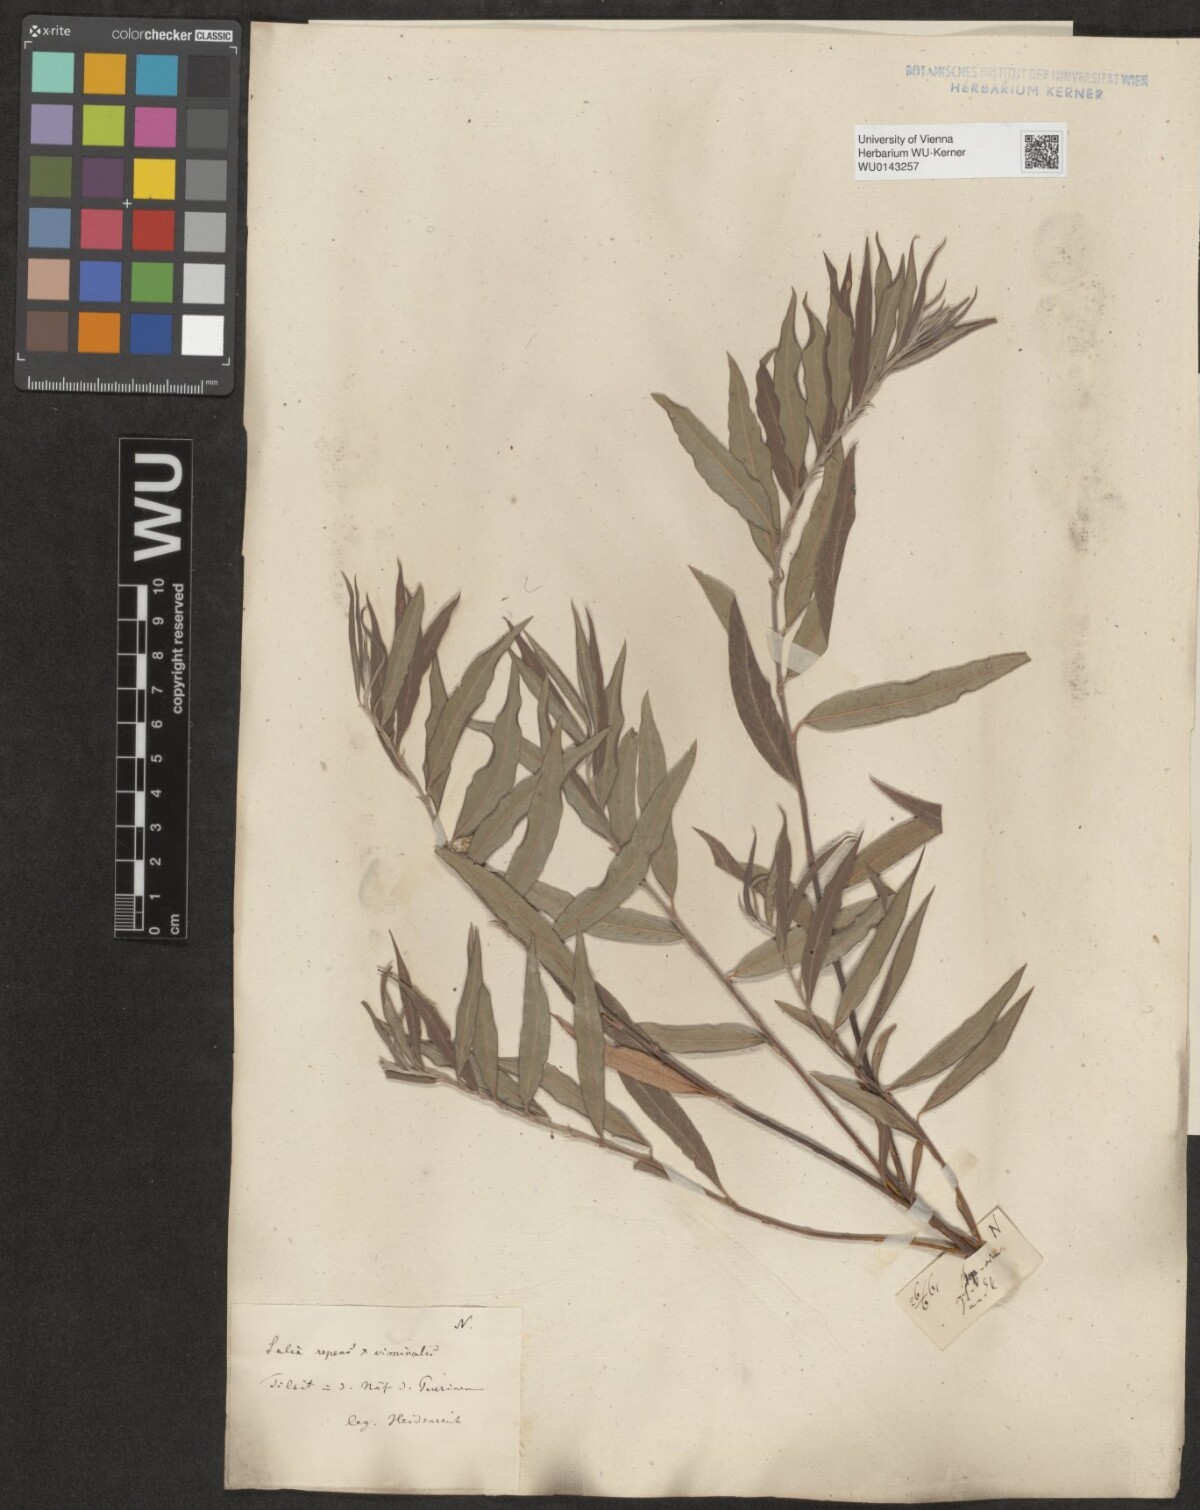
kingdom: Plantae
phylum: Tracheophyta
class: Magnoliopsida
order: Malpighiales
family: Salicaceae
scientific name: Salicaceae
